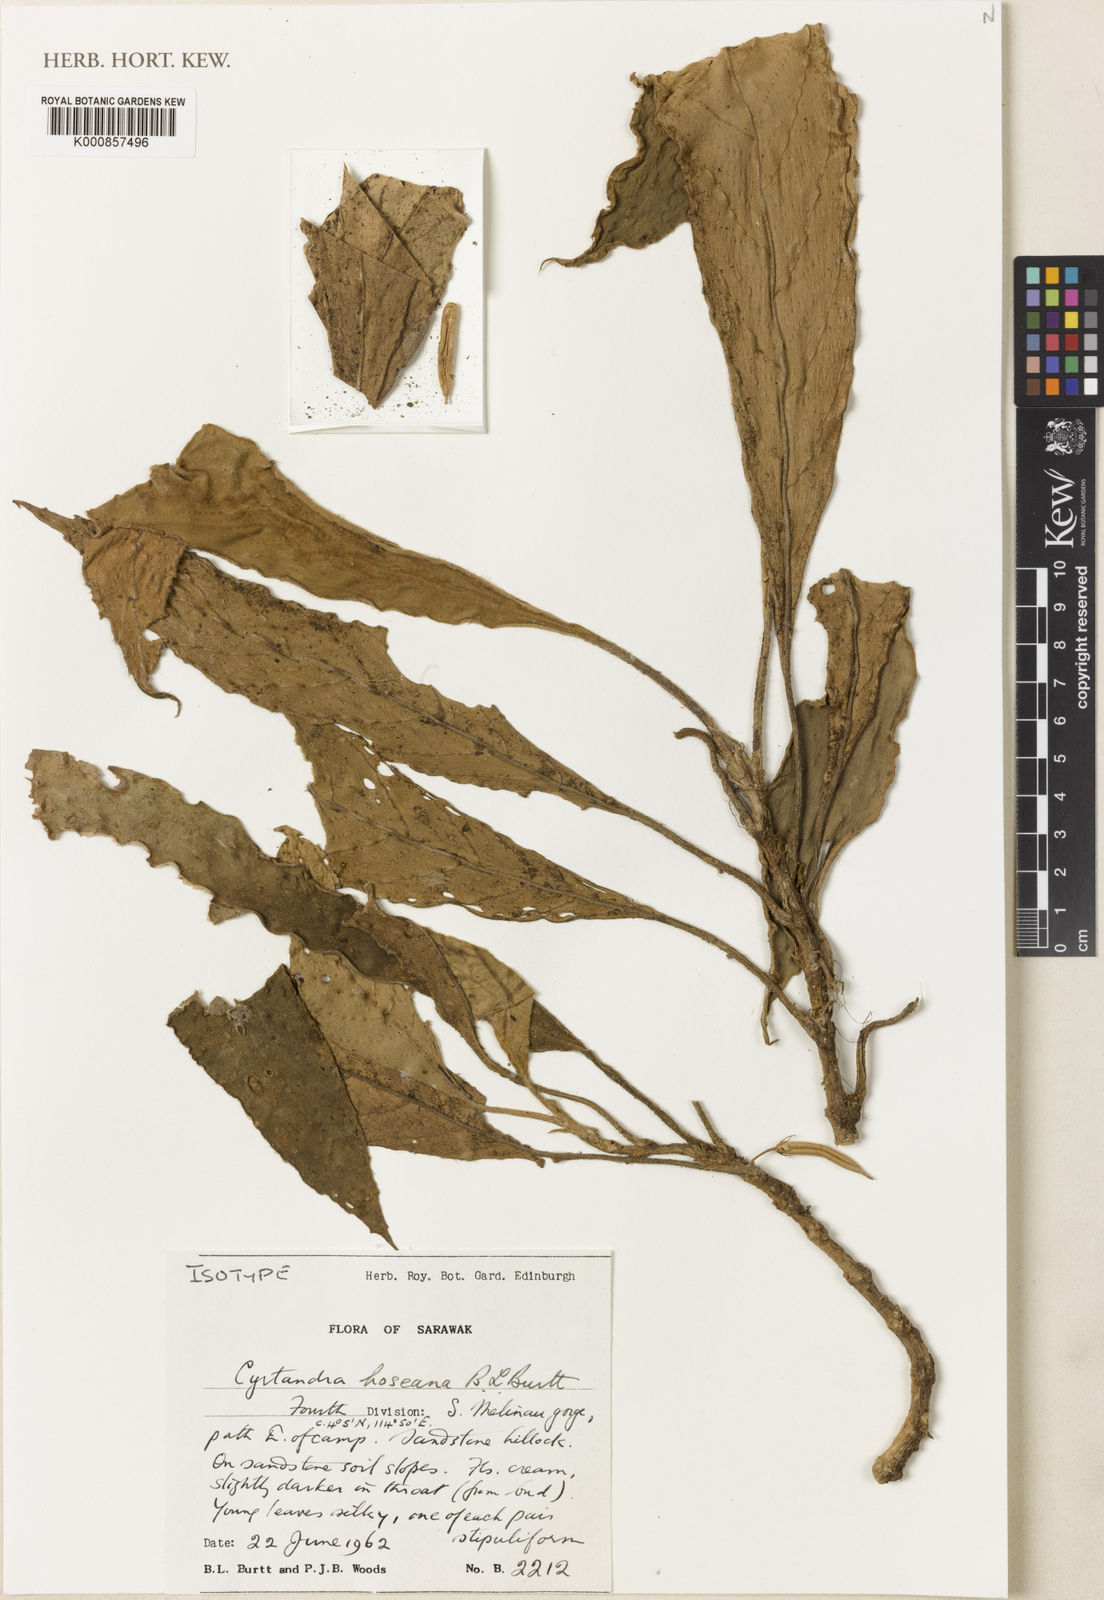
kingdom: Plantae
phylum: Tracheophyta
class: Magnoliopsida
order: Lamiales
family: Gesneriaceae
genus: Cyrtandra
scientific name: Cyrtandra hoseana
